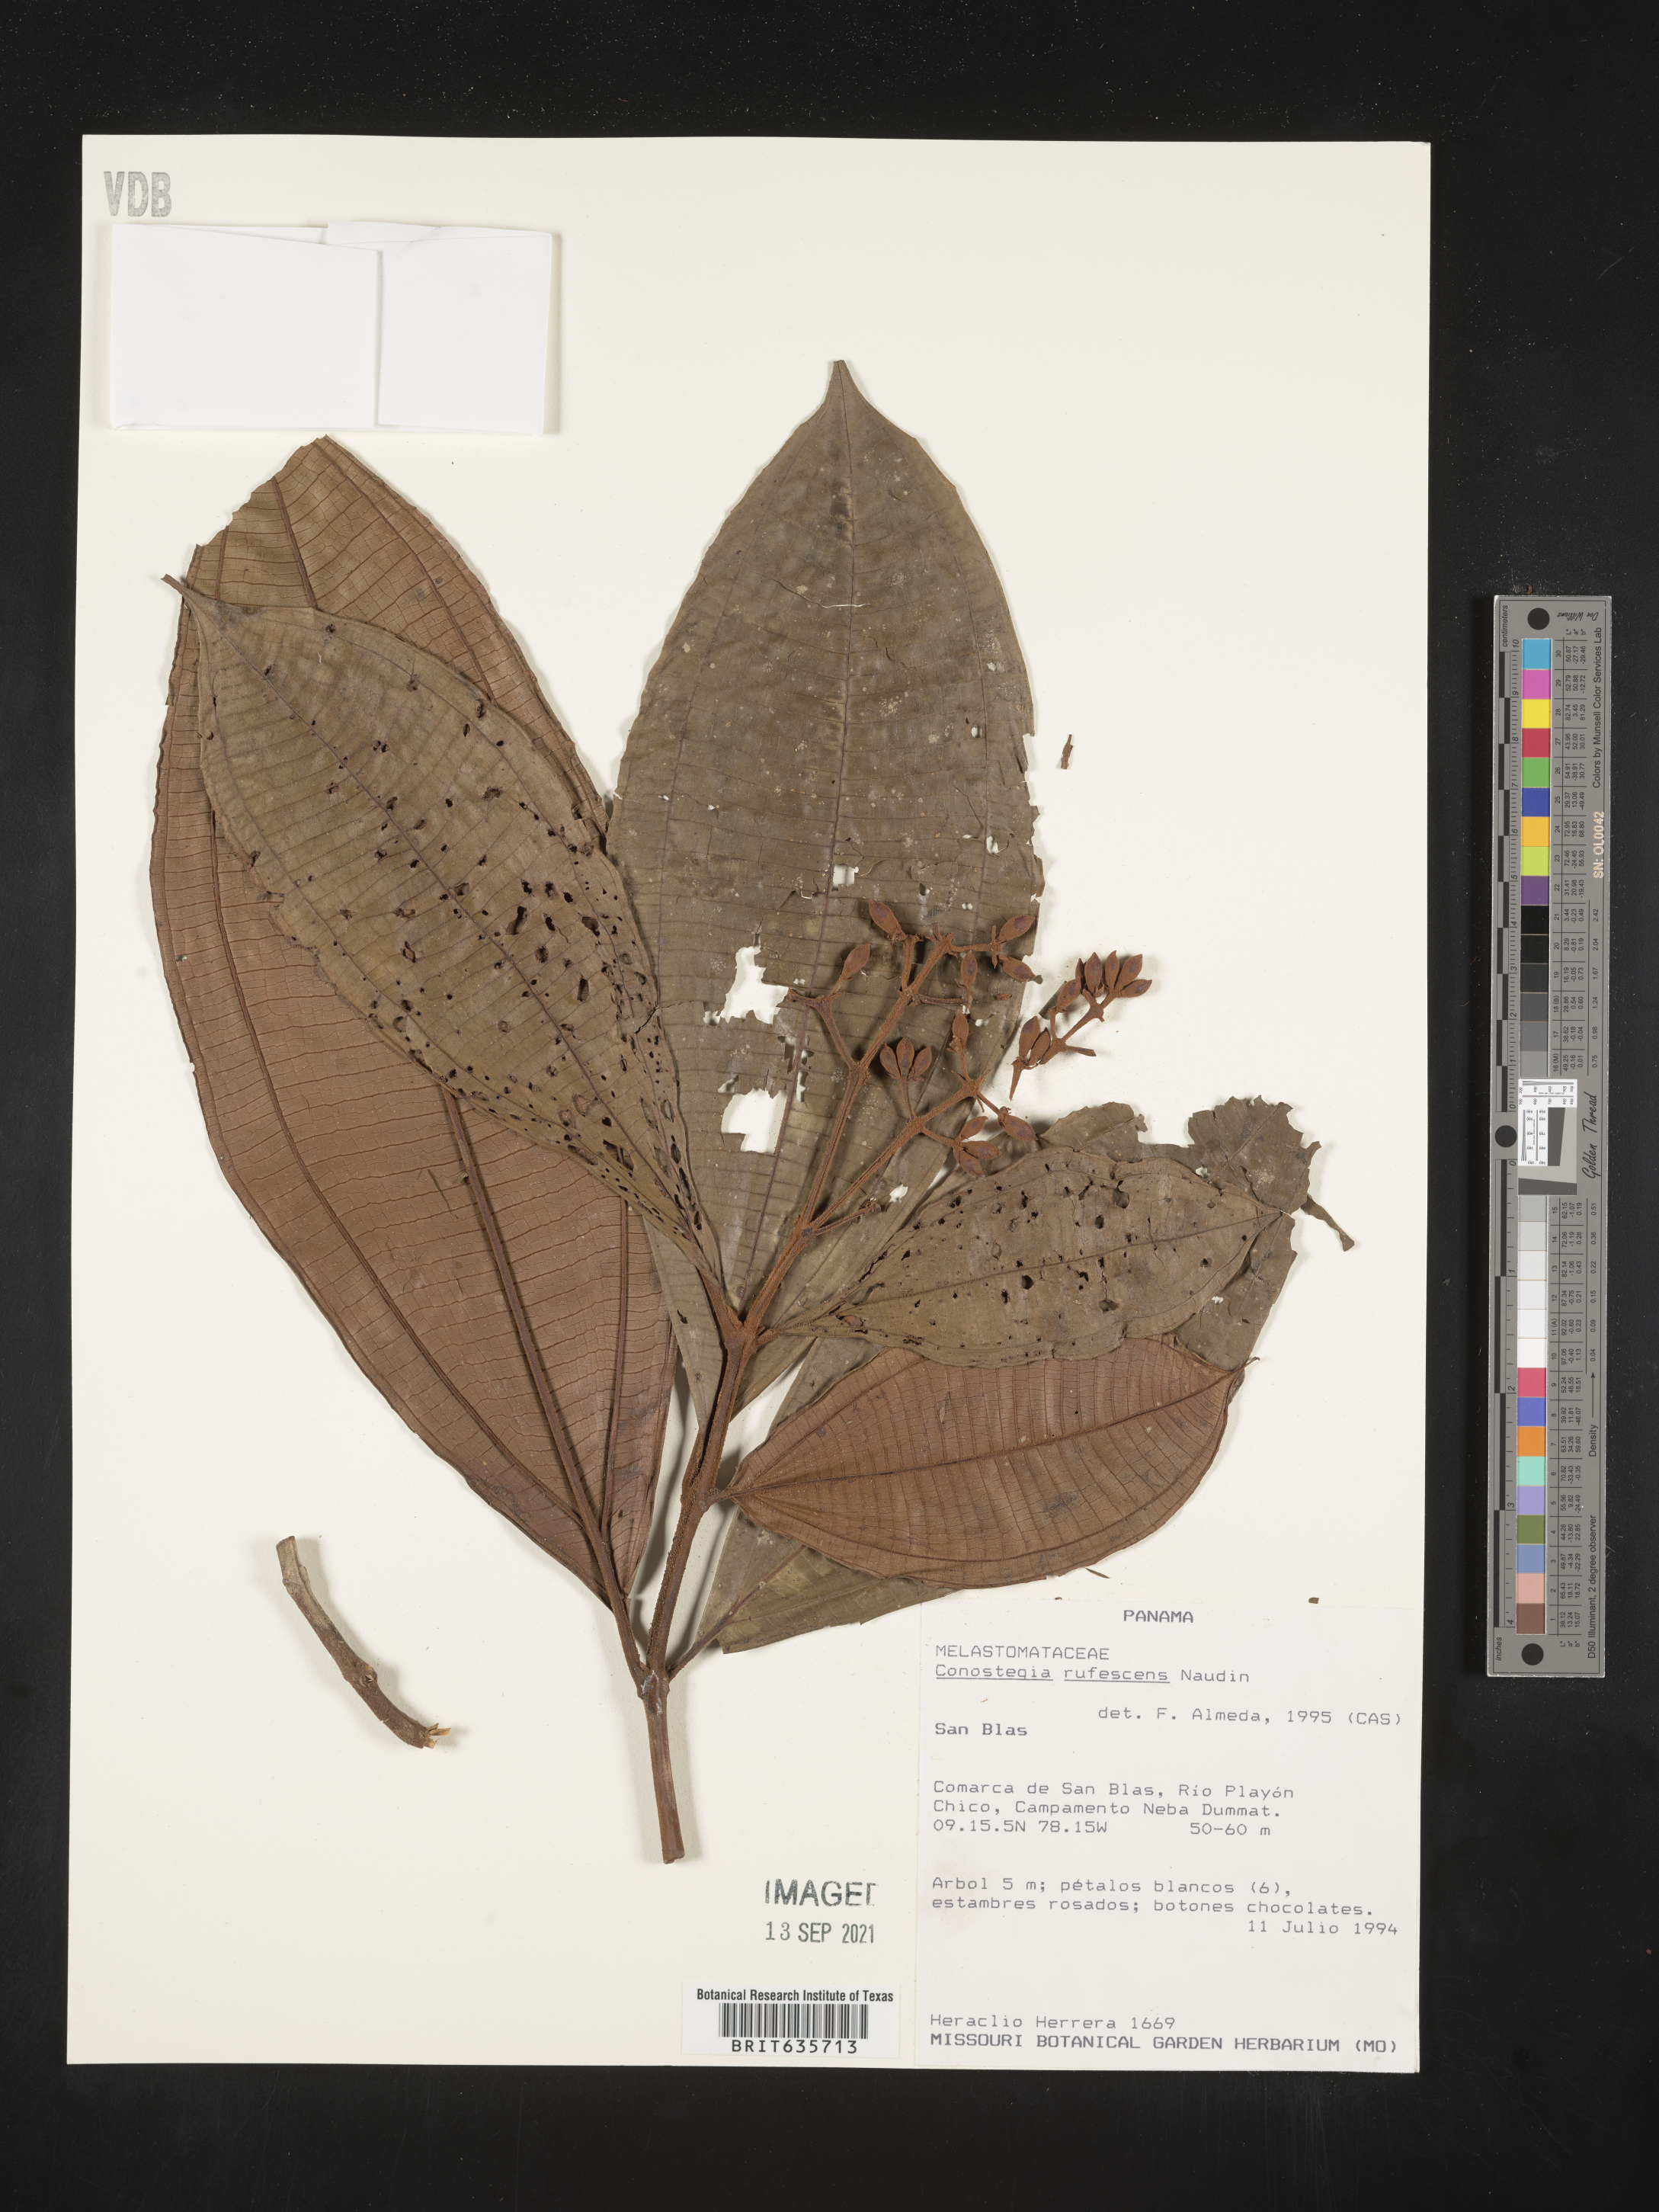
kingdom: Plantae
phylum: Tracheophyta
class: Magnoliopsida
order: Myrtales
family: Melastomataceae
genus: Miconia
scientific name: Miconia
